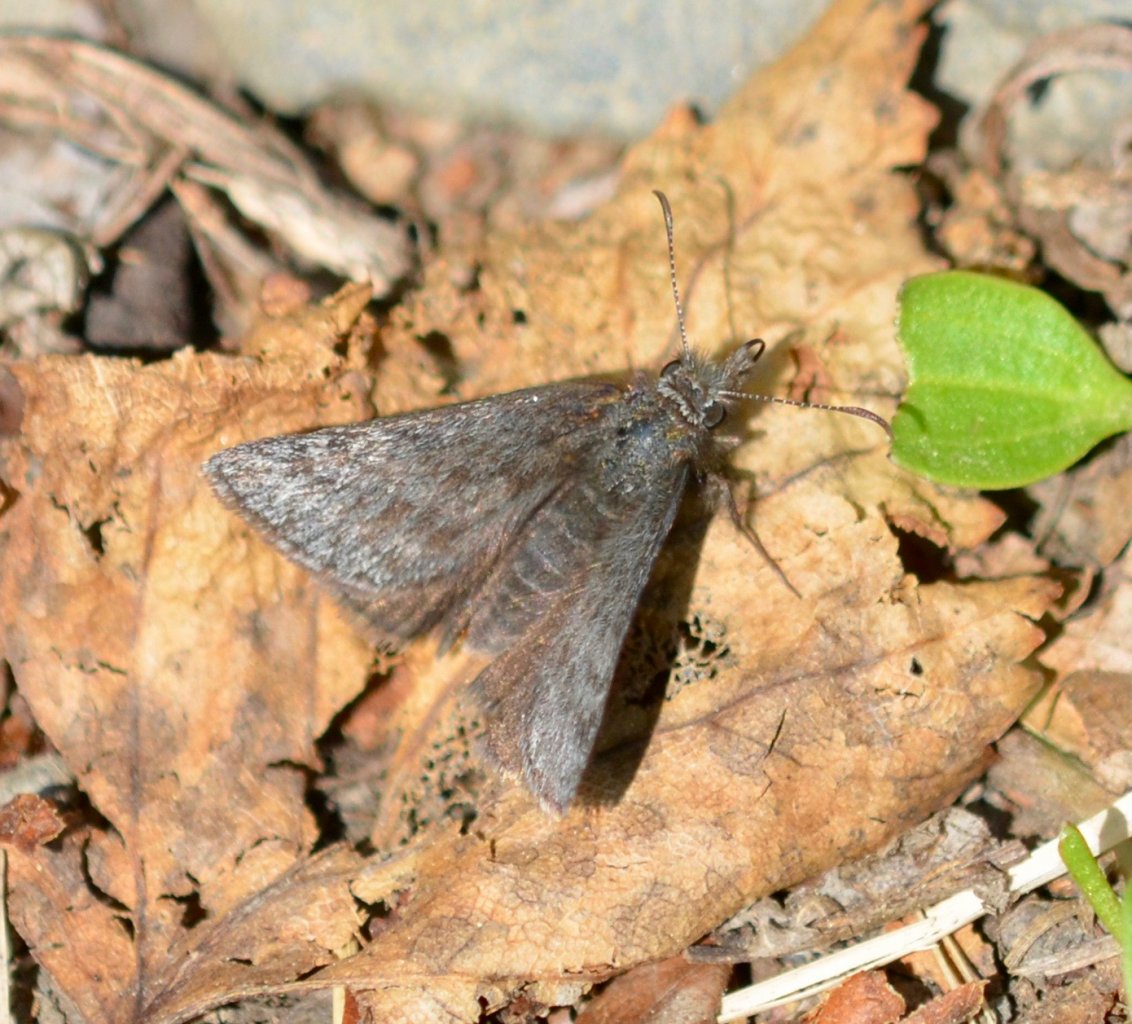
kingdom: Animalia
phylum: Arthropoda
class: Insecta
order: Lepidoptera
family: Hesperiidae
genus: Gesta
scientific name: Gesta
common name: Persius Duskywing
